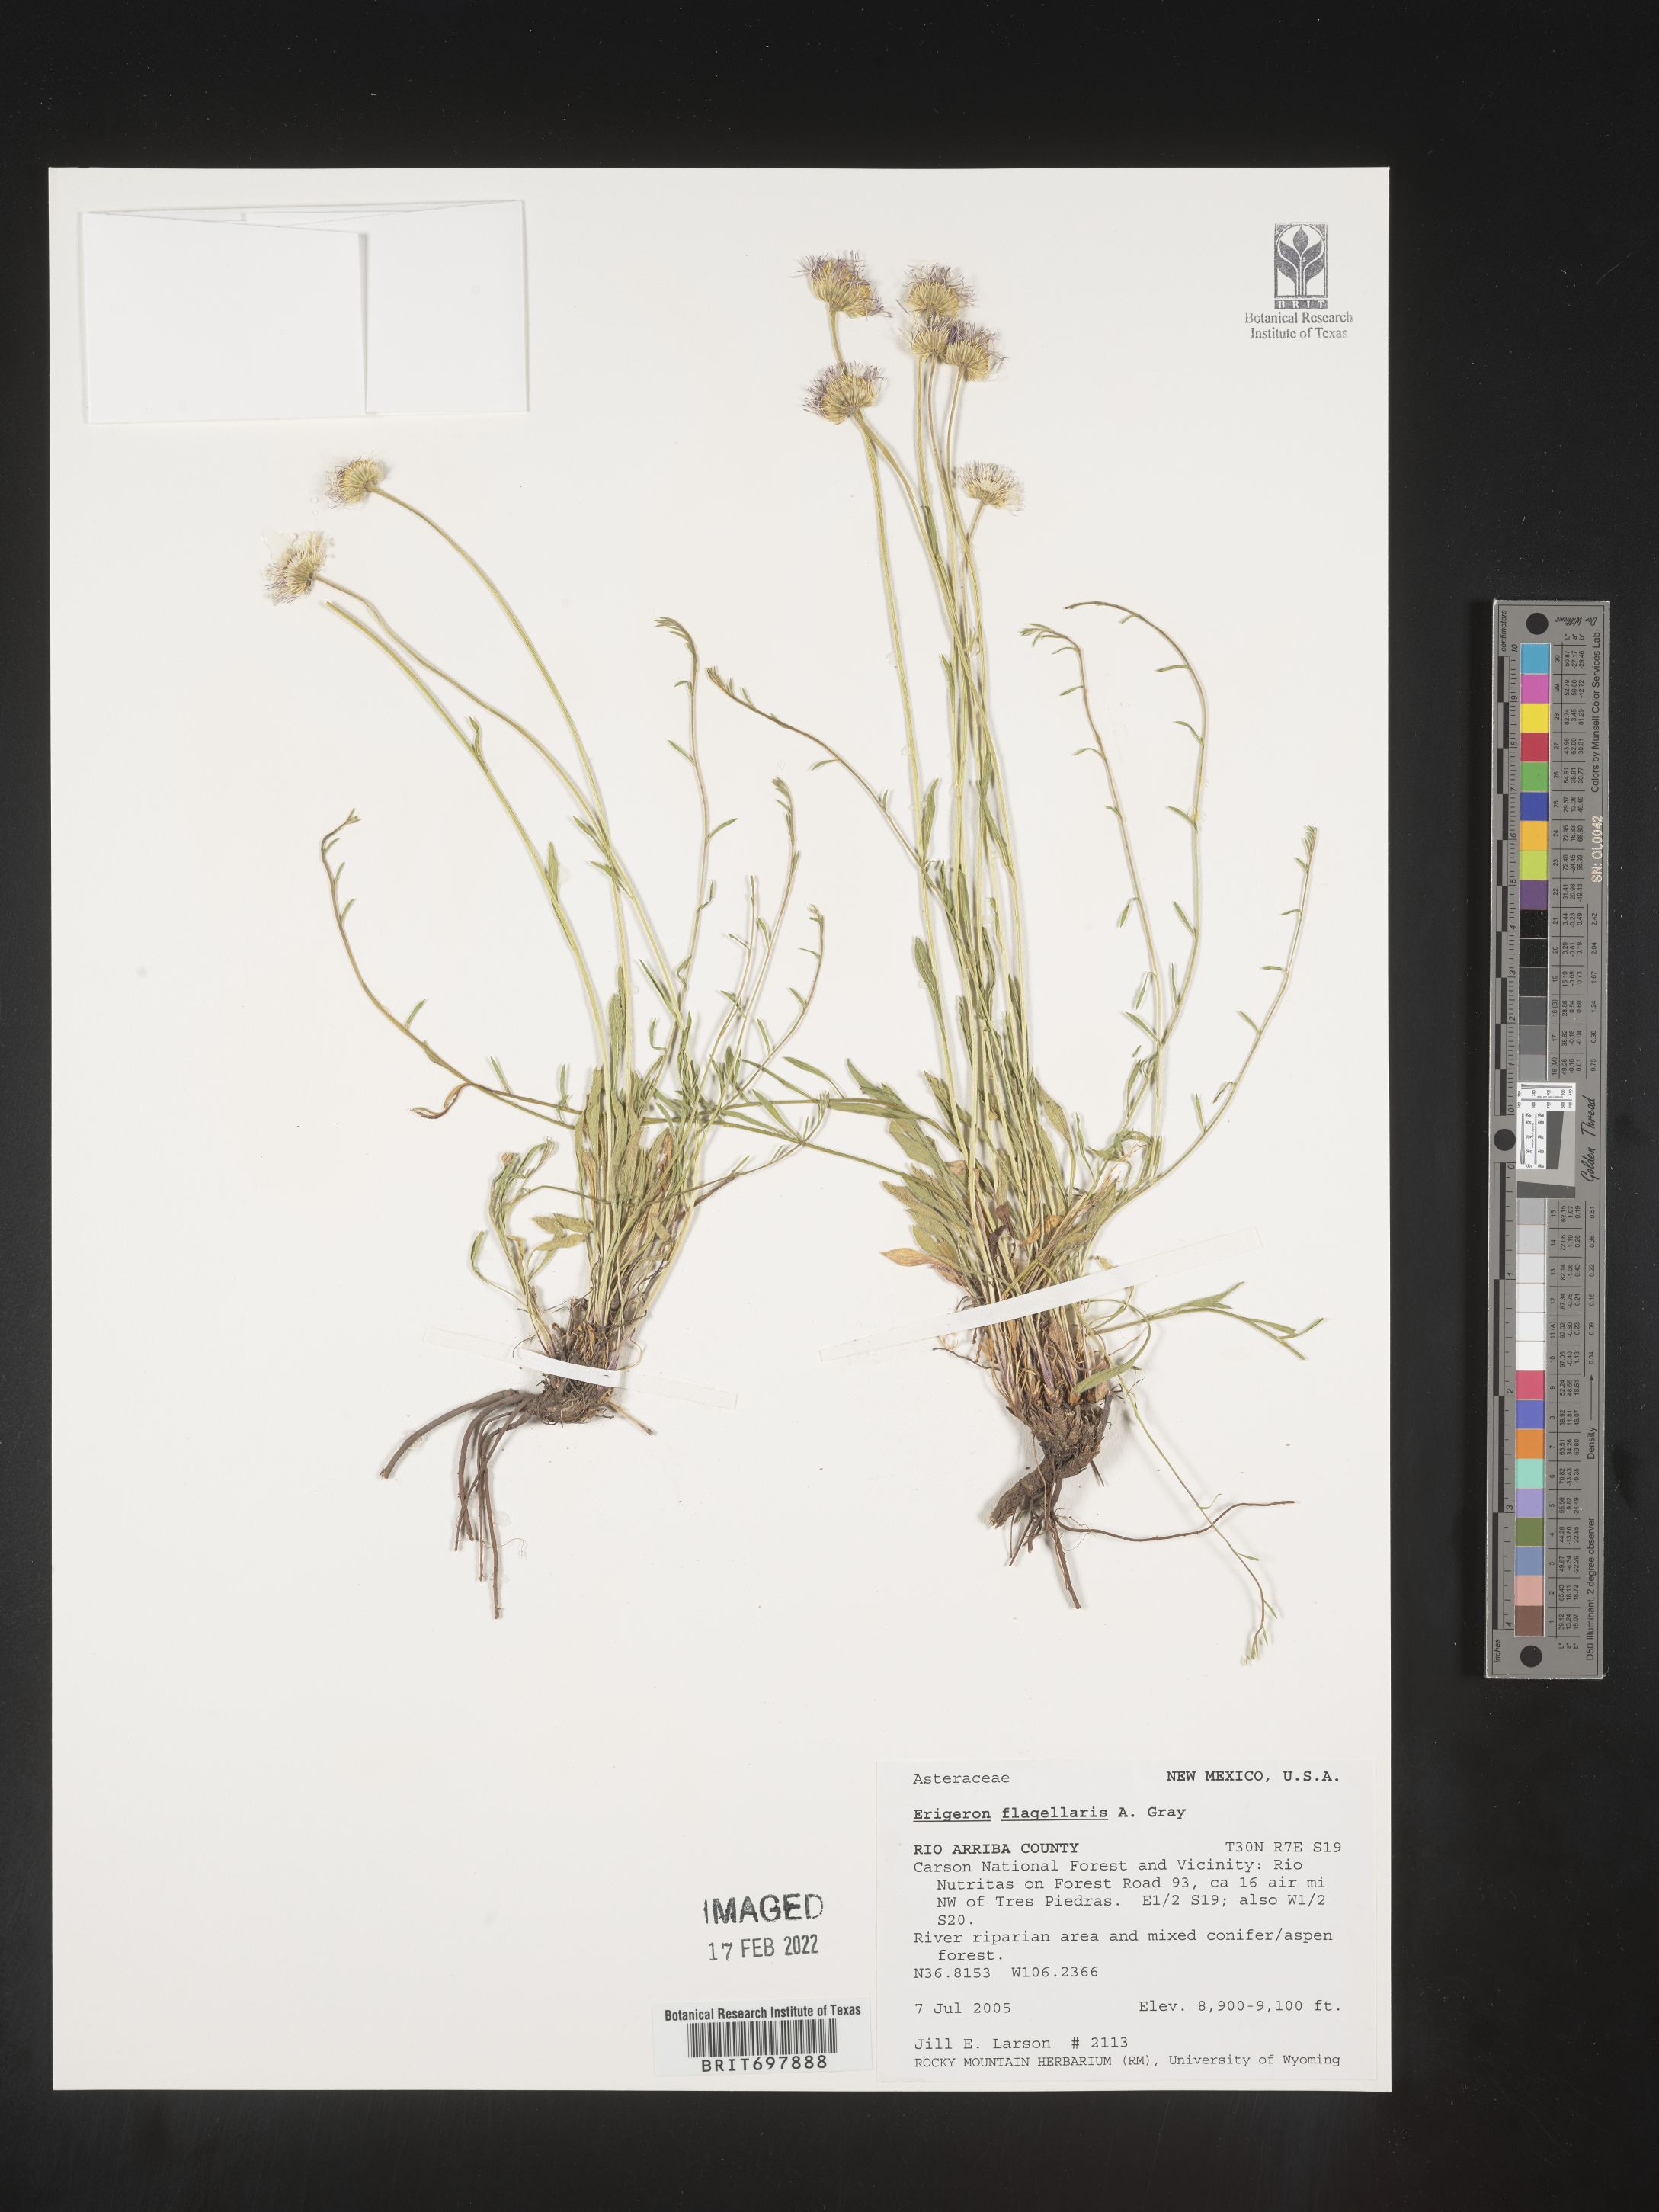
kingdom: Plantae
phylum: Tracheophyta
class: Magnoliopsida
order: Asterales
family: Asteraceae
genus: Erigeron
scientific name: Erigeron flagellaris
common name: Running fleabane
